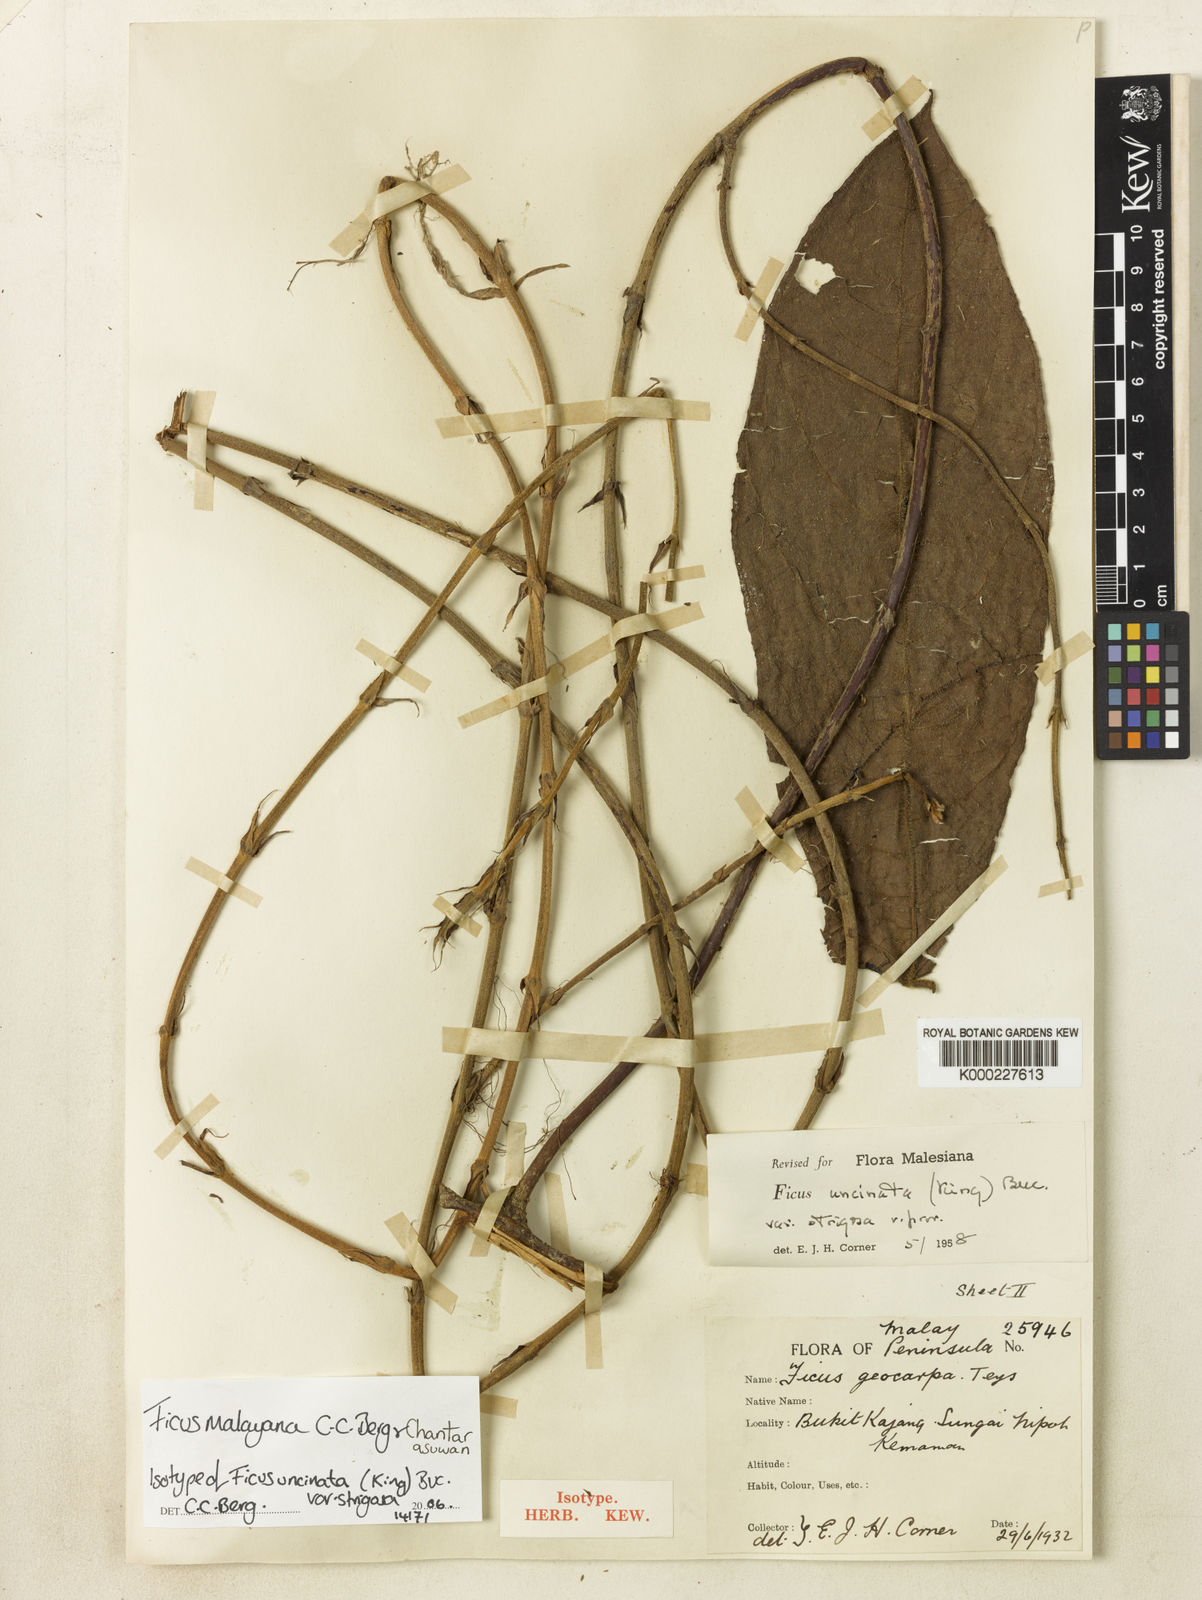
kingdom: Plantae
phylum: Tracheophyta
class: Magnoliopsida
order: Rosales
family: Moraceae
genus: Ficus
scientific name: Ficus malayana
